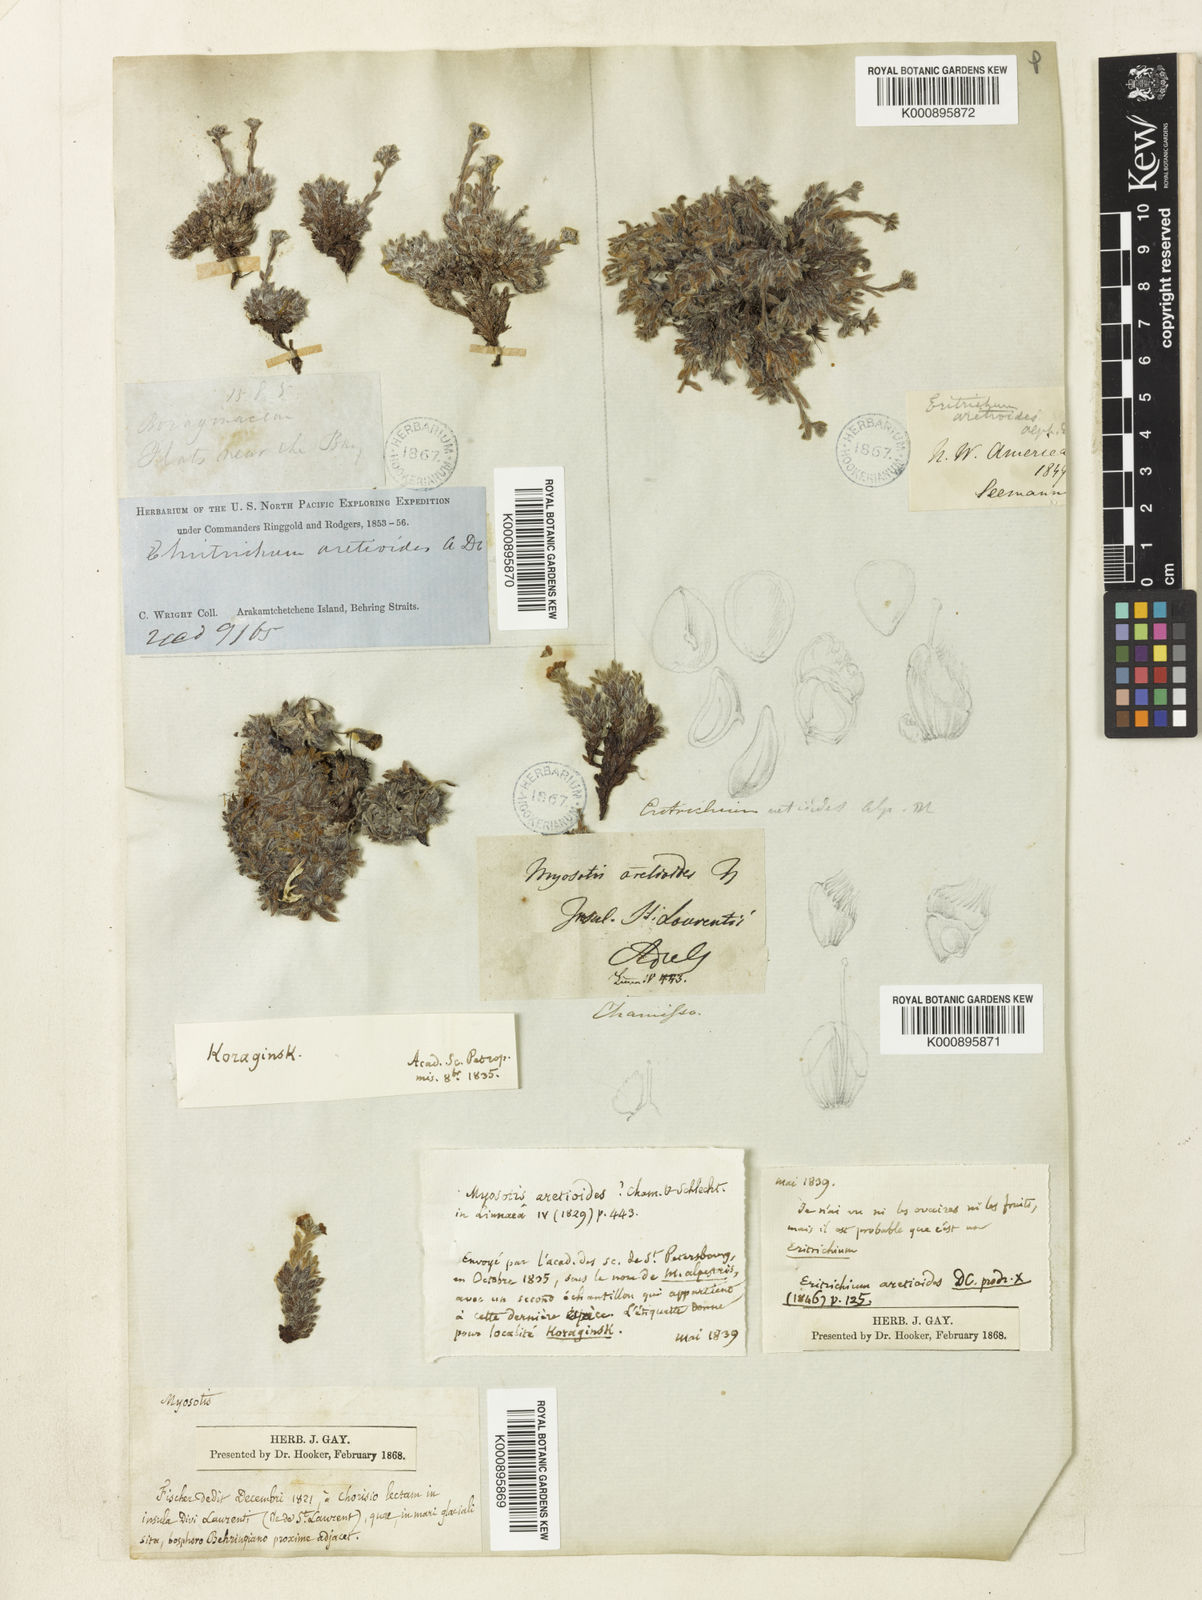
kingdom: Plantae
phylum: Tracheophyta
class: Magnoliopsida
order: Boraginales
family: Boraginaceae
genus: Eritrichium
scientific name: Eritrichium aretioides
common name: Arctic-alpine forget-me-not
